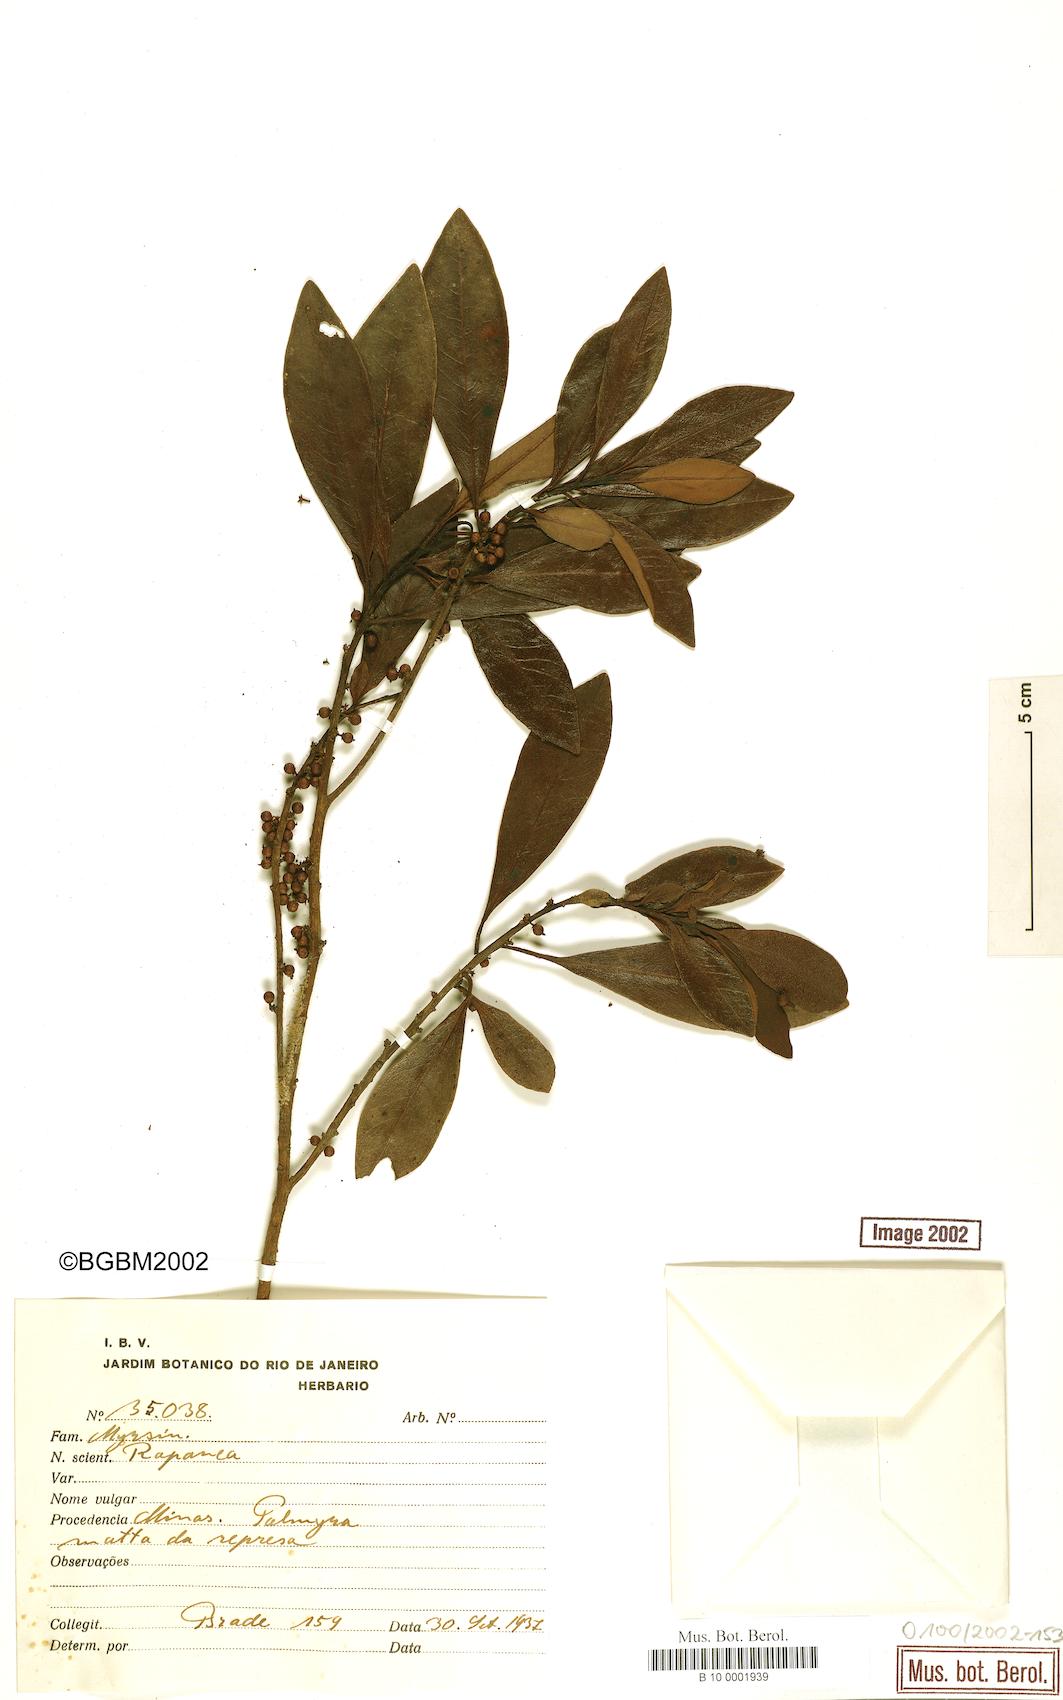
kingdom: Plantae
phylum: Tracheophyta
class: Magnoliopsida
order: Ericales
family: Primulaceae
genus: Myrsine
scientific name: Myrsine
